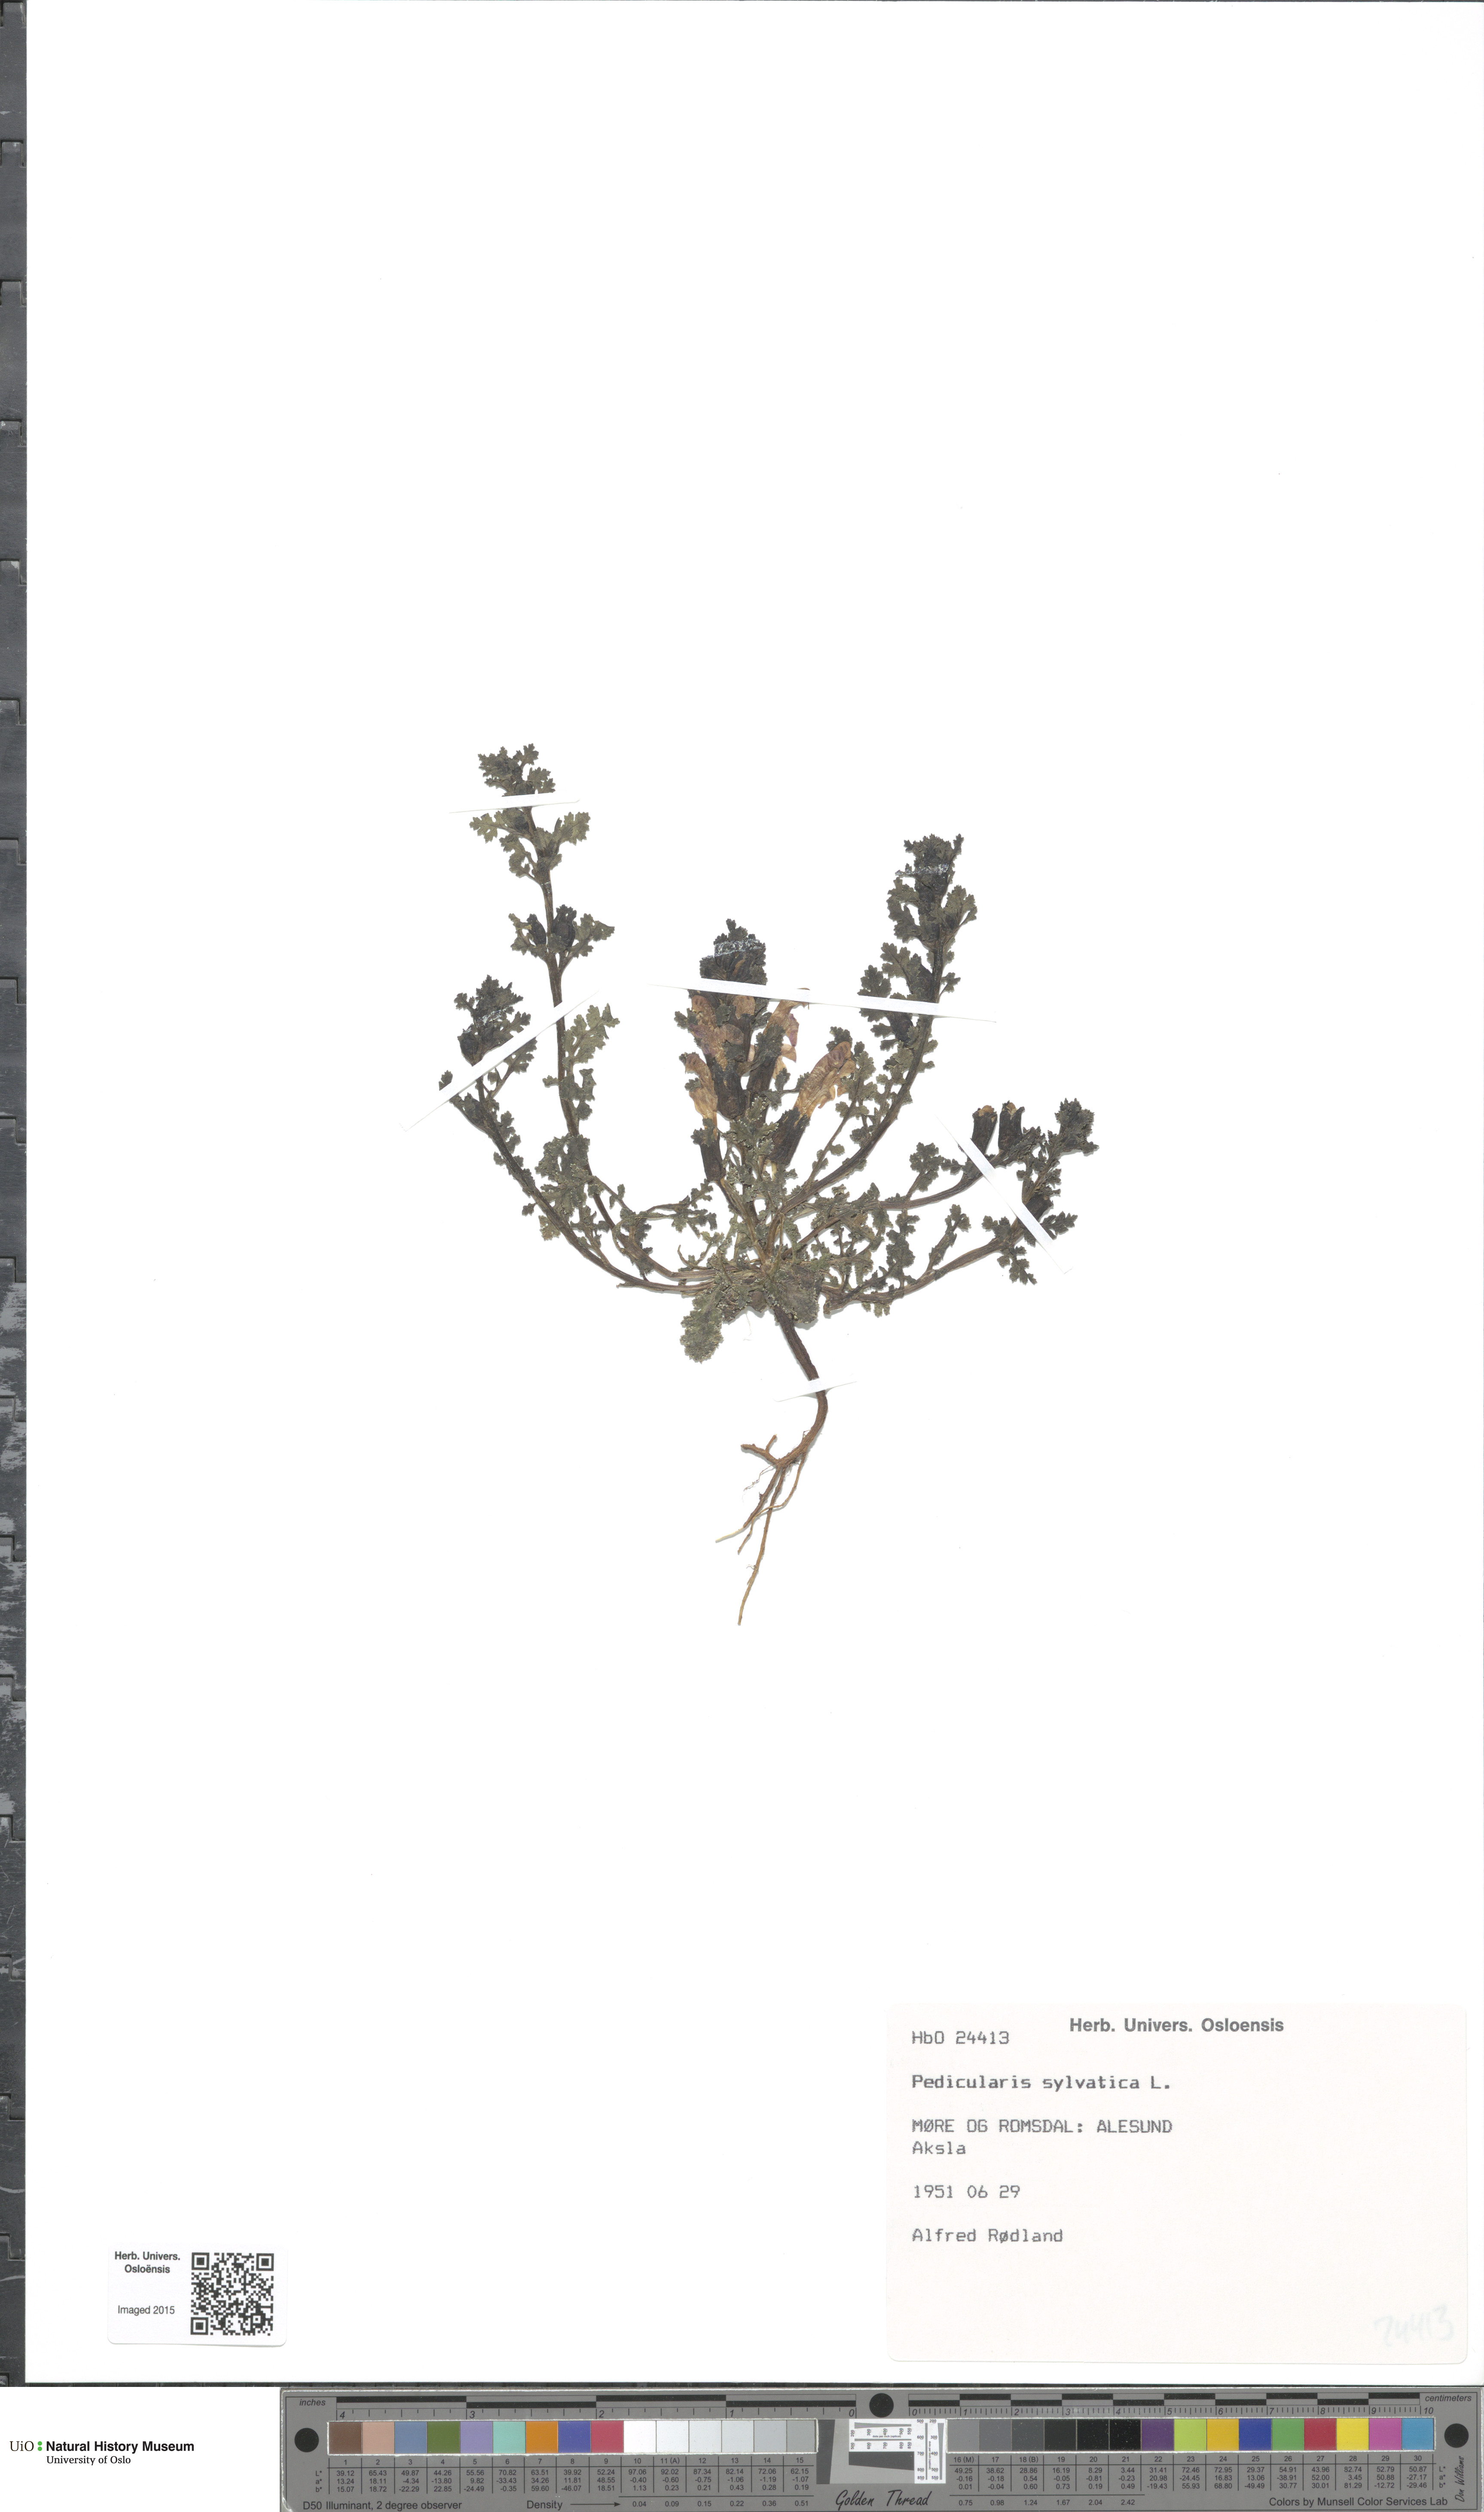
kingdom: Plantae
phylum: Tracheophyta
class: Magnoliopsida
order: Lamiales
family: Orobanchaceae
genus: Pedicularis
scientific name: Pedicularis sylvatica
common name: Lousewort
